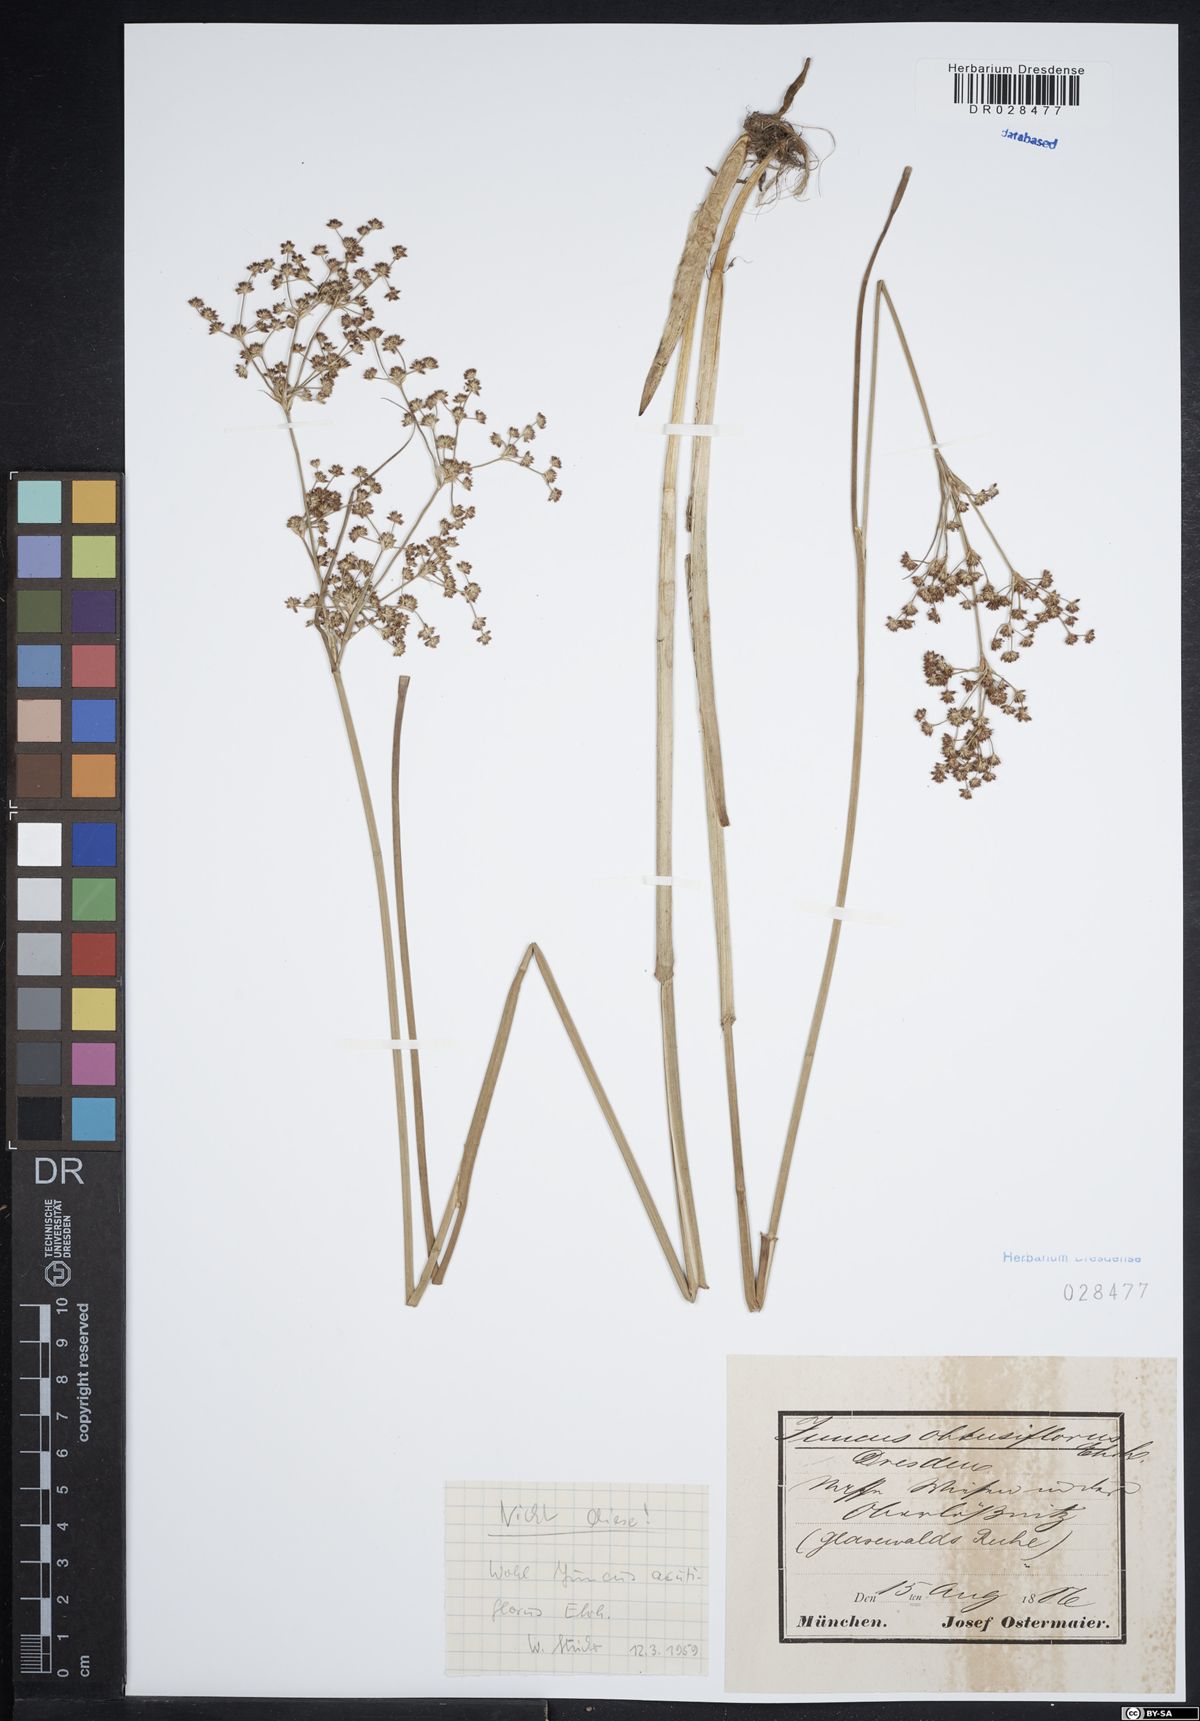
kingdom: Plantae
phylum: Tracheophyta
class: Liliopsida
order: Poales
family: Juncaceae
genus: Juncus
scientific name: Juncus acutiflorus
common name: Sharp-flowered rush
